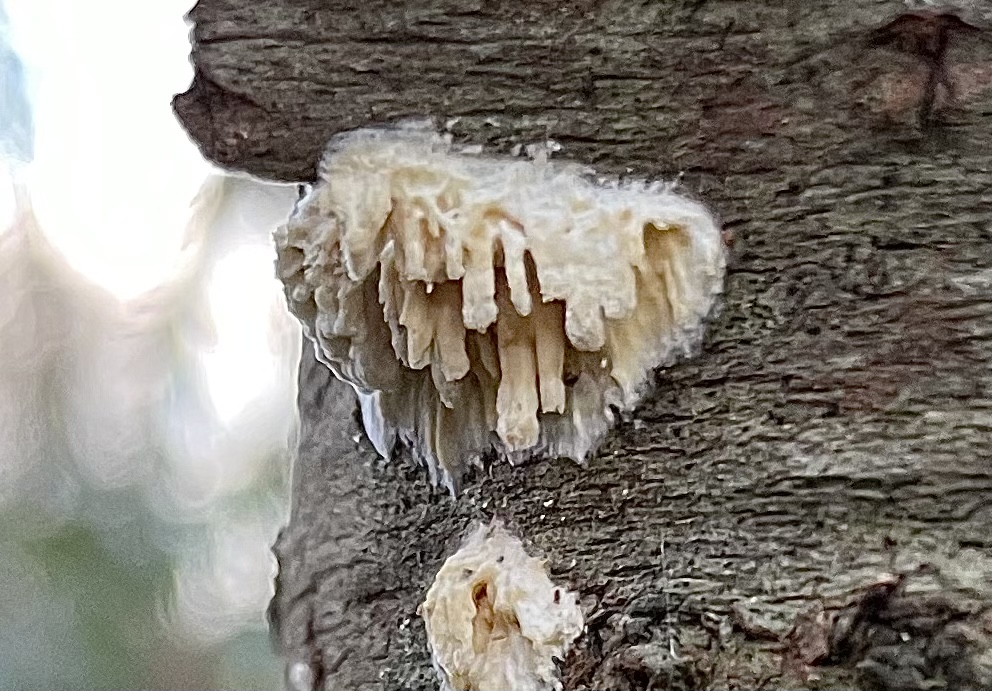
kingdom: Fungi
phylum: Basidiomycota
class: Agaricomycetes
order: Hymenochaetales
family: Schizoporaceae
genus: Xylodon
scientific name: Xylodon radula
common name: grovtandet kalkskind
